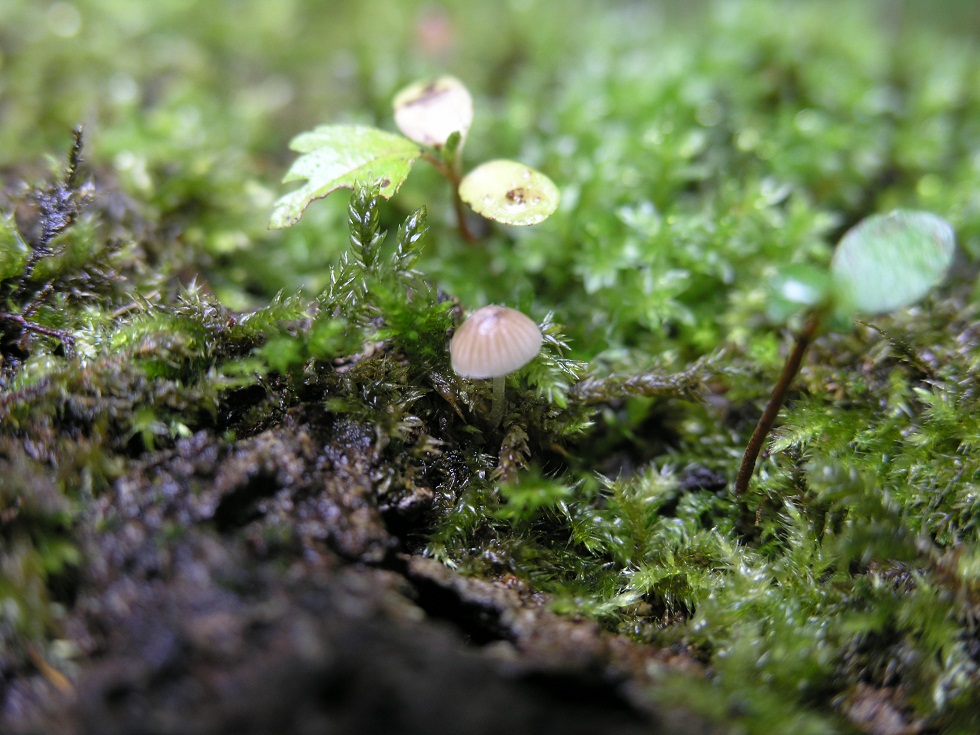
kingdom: Fungi
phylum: Basidiomycota
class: Agaricomycetes
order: Agaricales
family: Porotheleaceae
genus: Phloeomana
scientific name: Phloeomana hiemalis
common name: sen huesvamp
